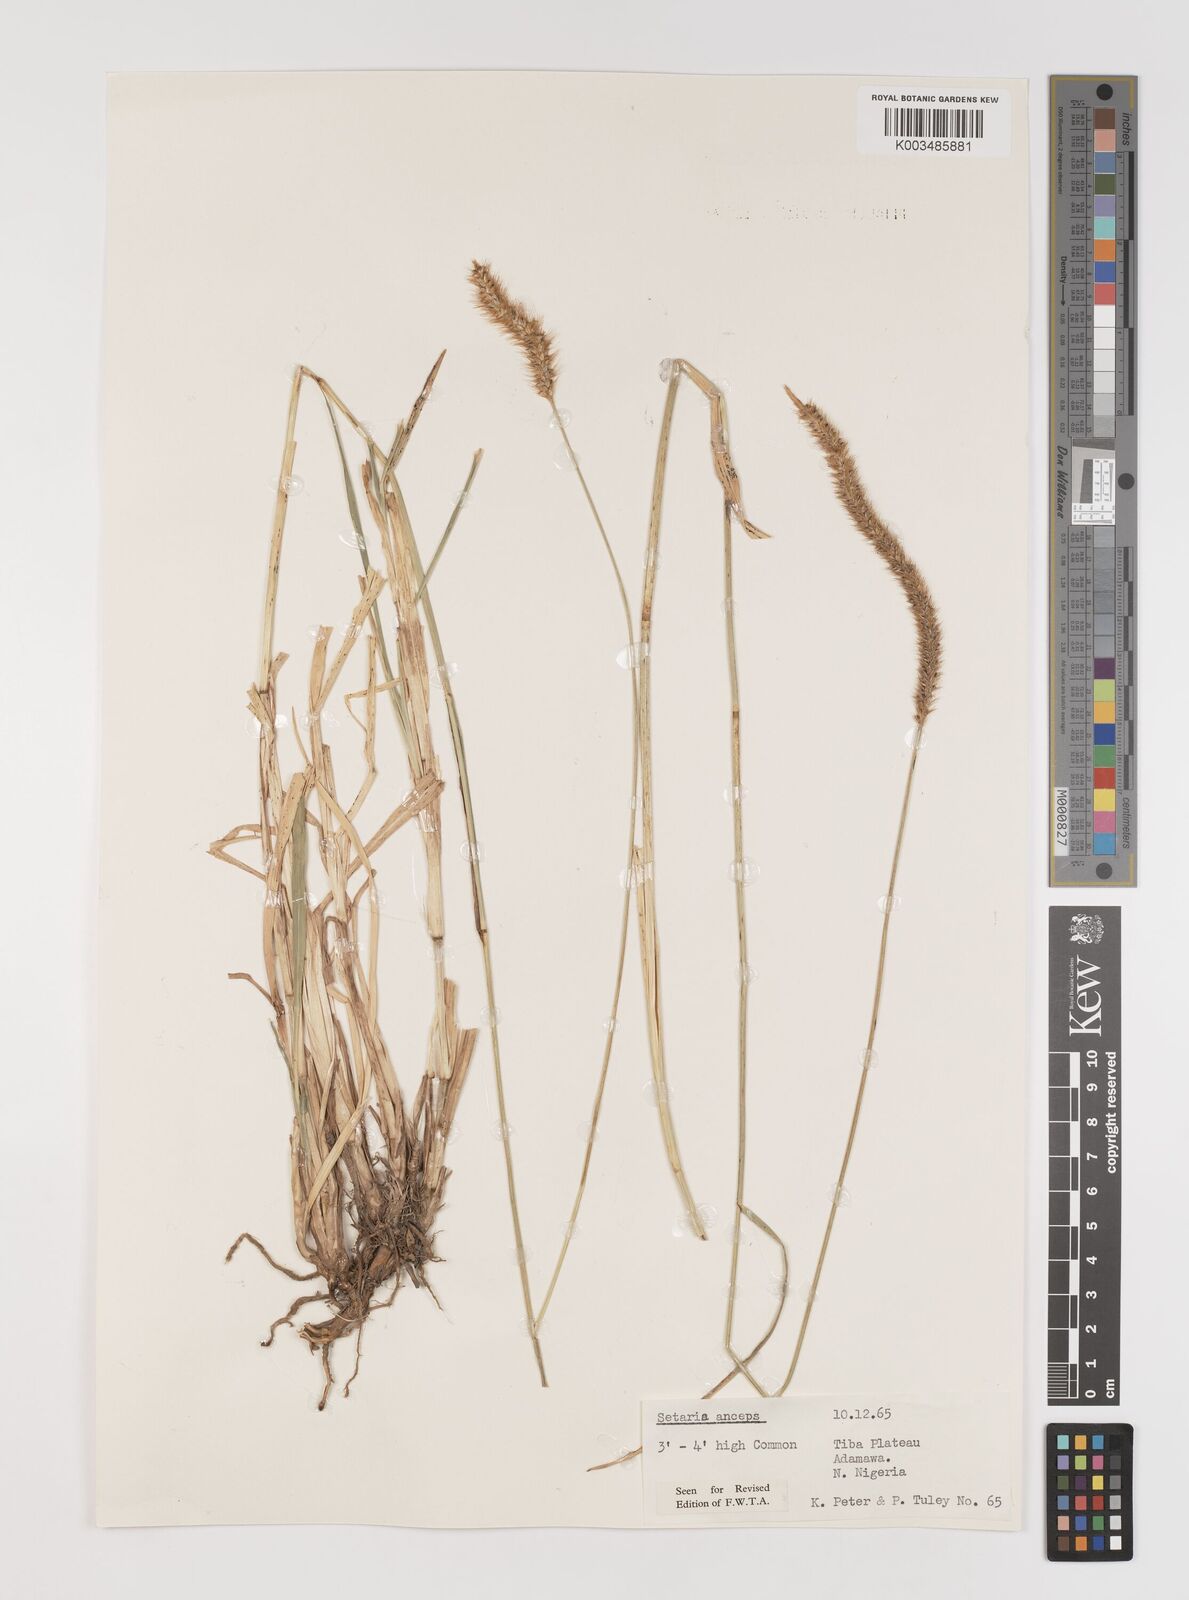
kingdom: Plantae
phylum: Tracheophyta
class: Liliopsida
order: Poales
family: Poaceae
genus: Setaria
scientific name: Setaria sphacelata
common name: African bristlegrass
